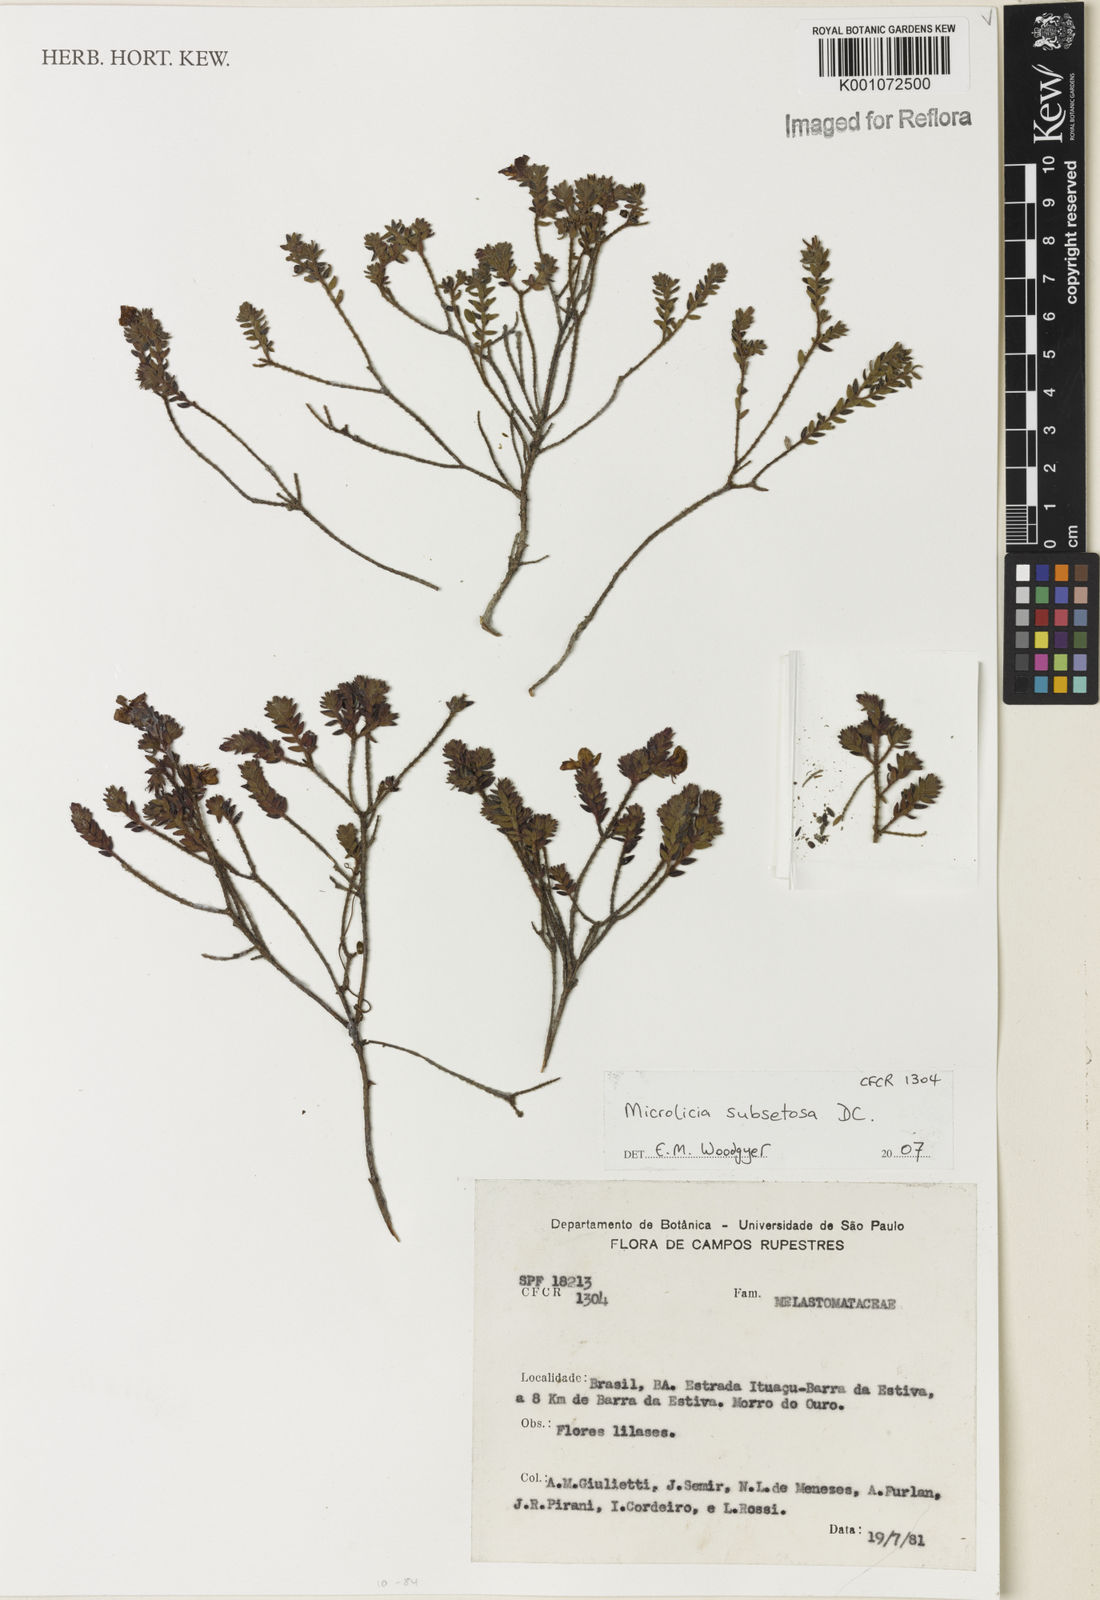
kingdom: Plantae
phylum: Tracheophyta
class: Magnoliopsida
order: Myrtales
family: Melastomataceae
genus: Microlicia
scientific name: Microlicia subsetosa
